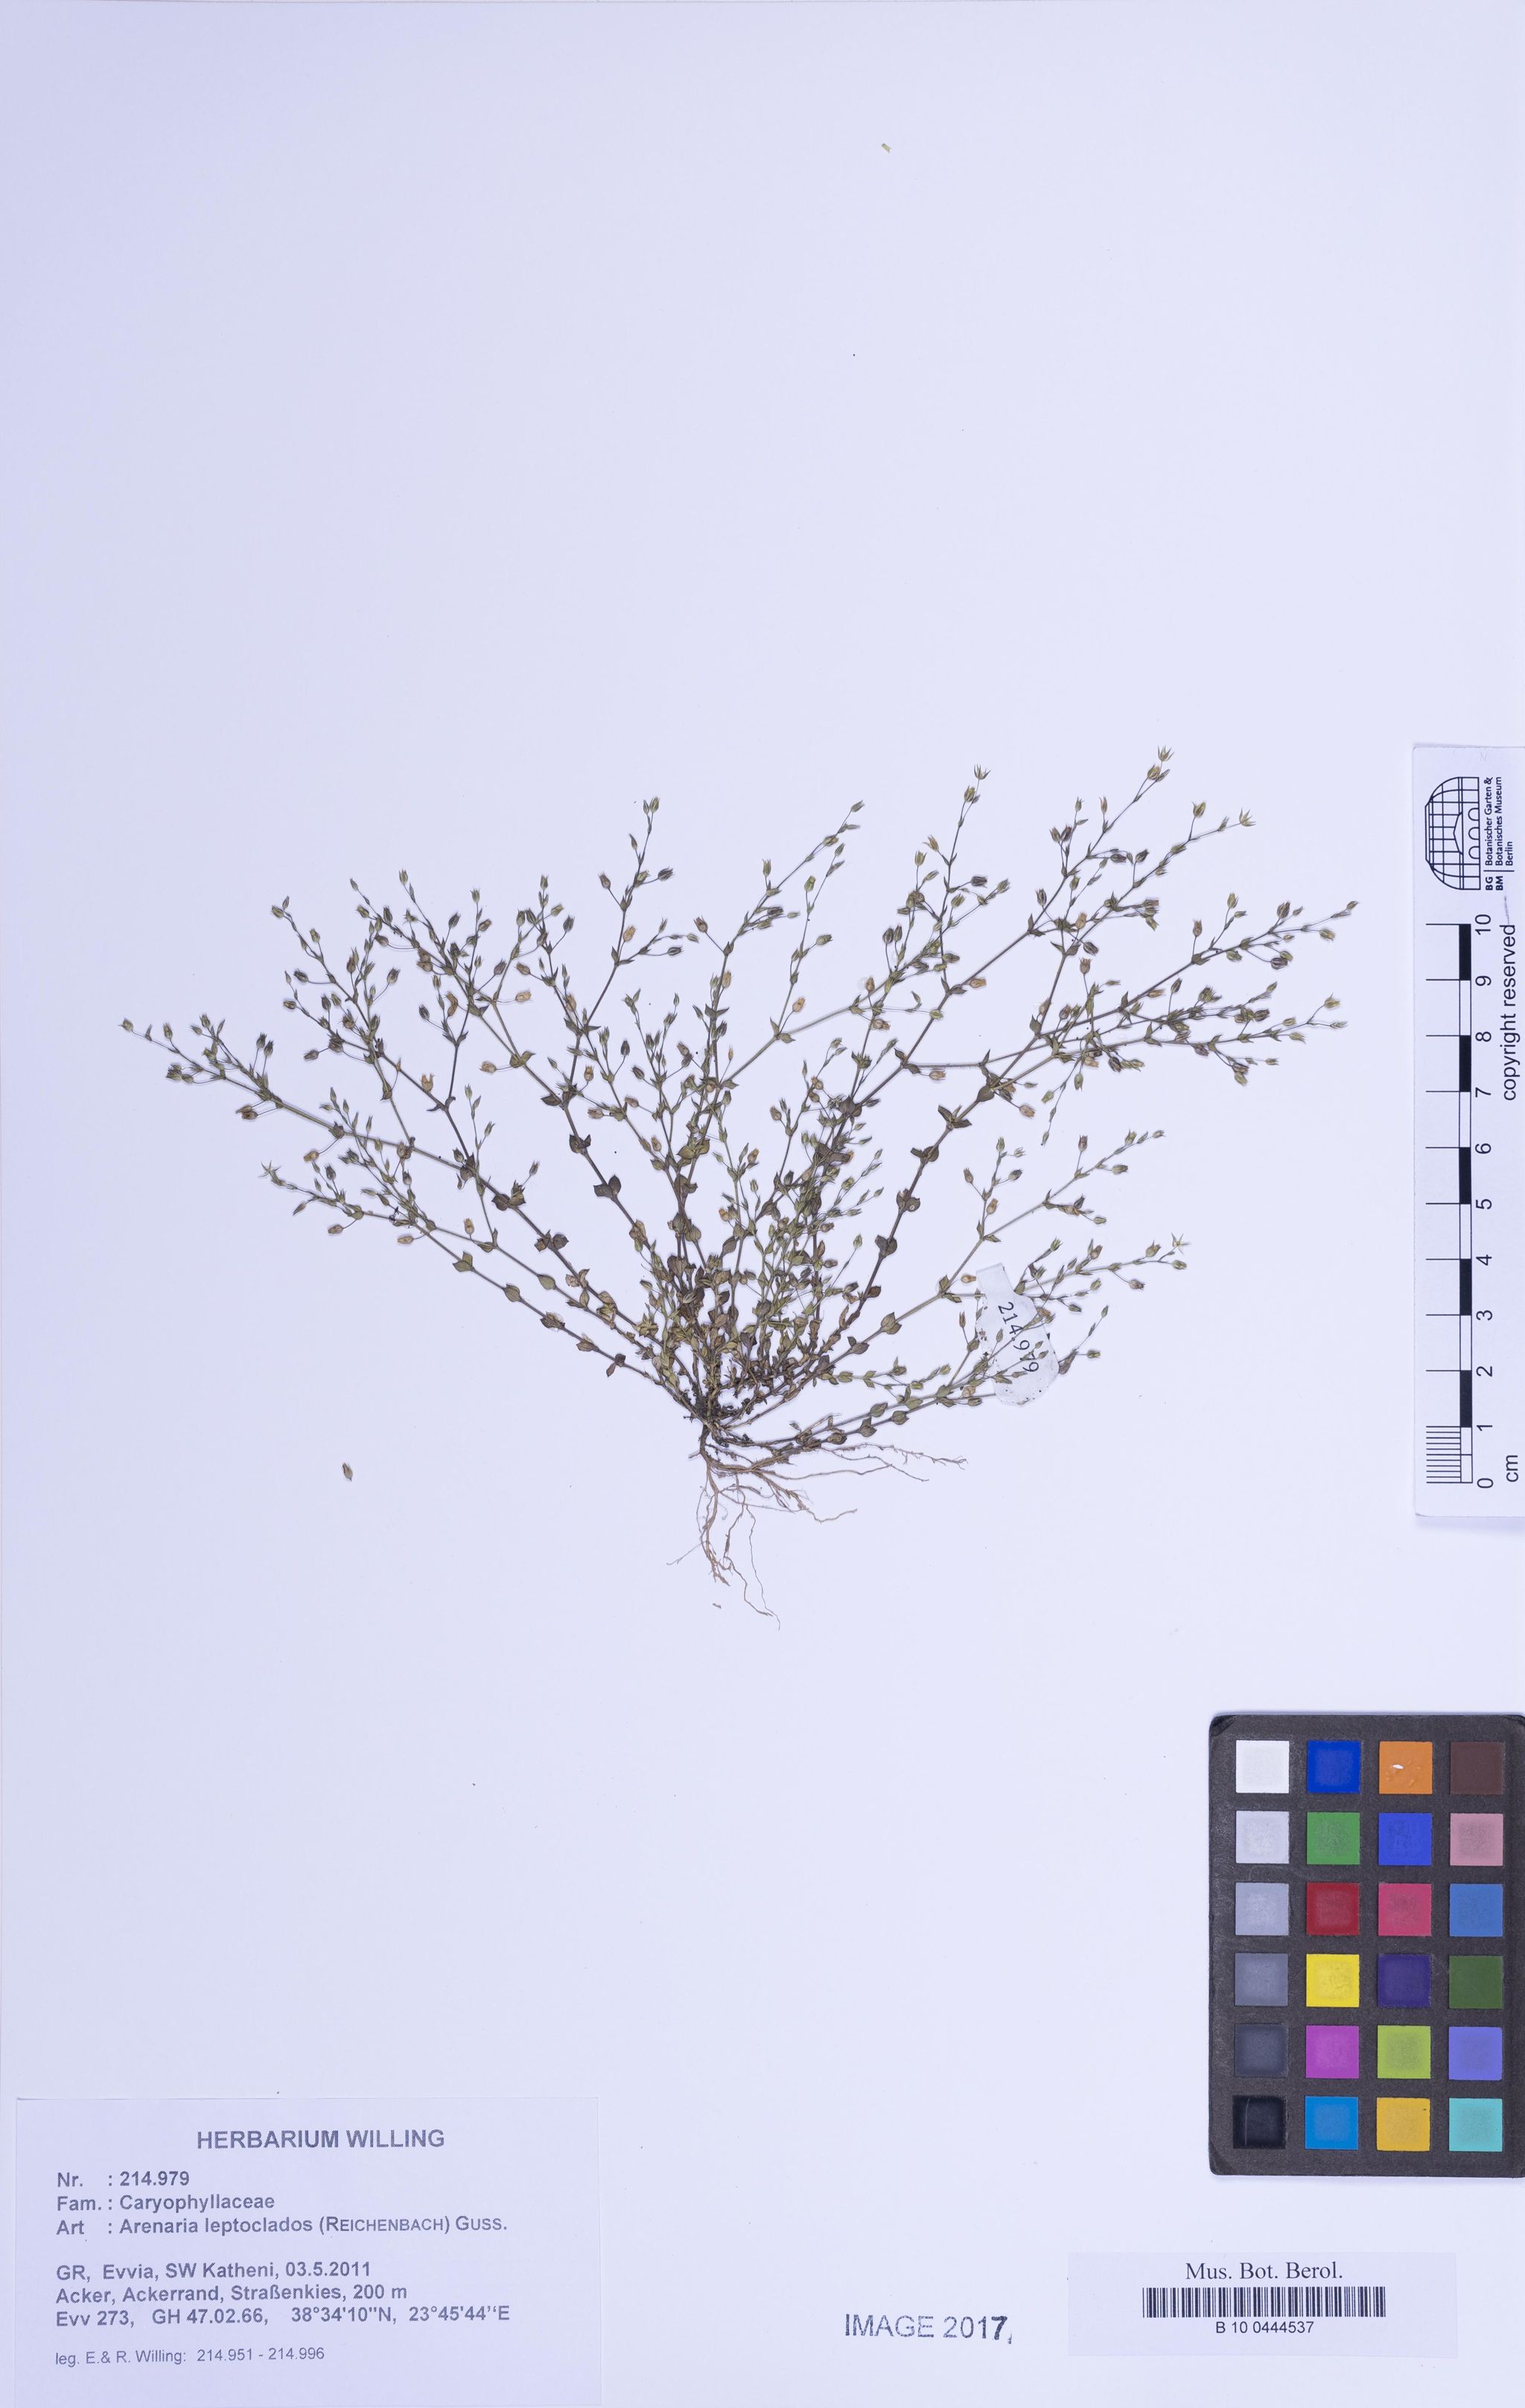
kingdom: Plantae
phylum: Tracheophyta
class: Magnoliopsida
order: Caryophyllales
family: Caryophyllaceae
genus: Arenaria
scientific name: Arenaria leptoclados
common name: Thyme-leaved sandwort
